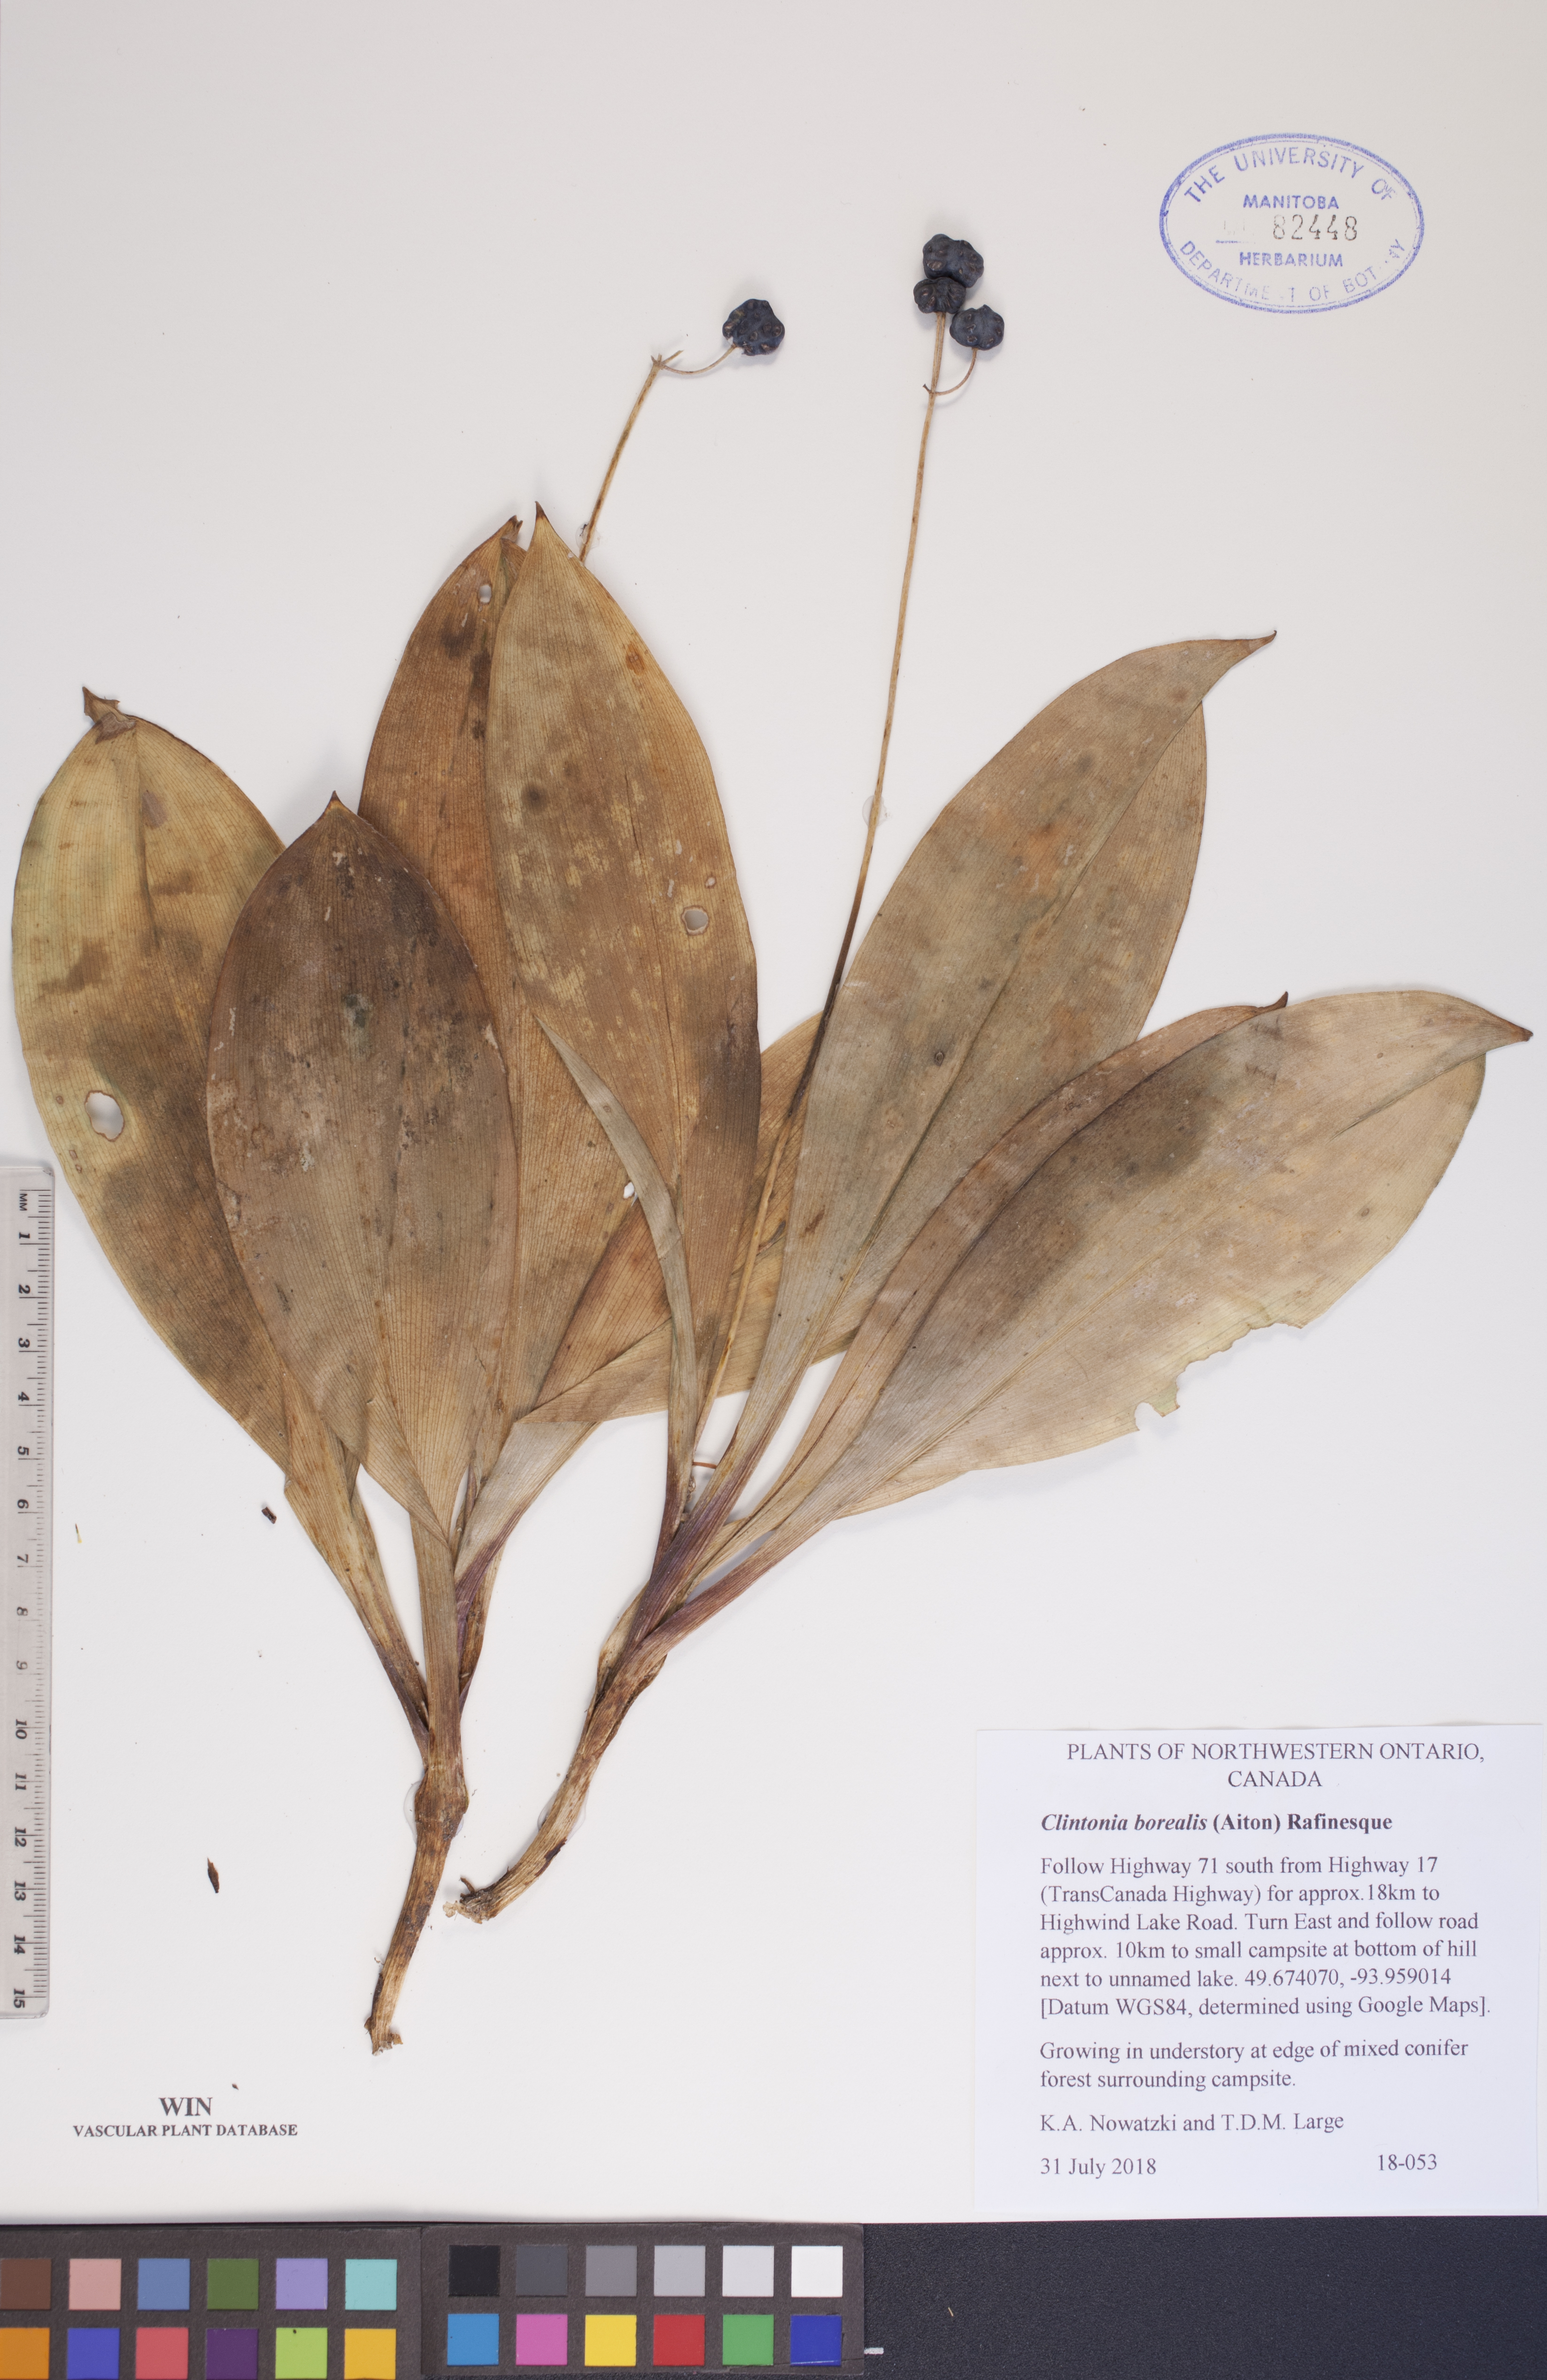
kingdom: Plantae
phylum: Tracheophyta
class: Liliopsida
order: Liliales
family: Liliaceae
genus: Clintonia
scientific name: Clintonia borealis
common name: Yellow clintonia
